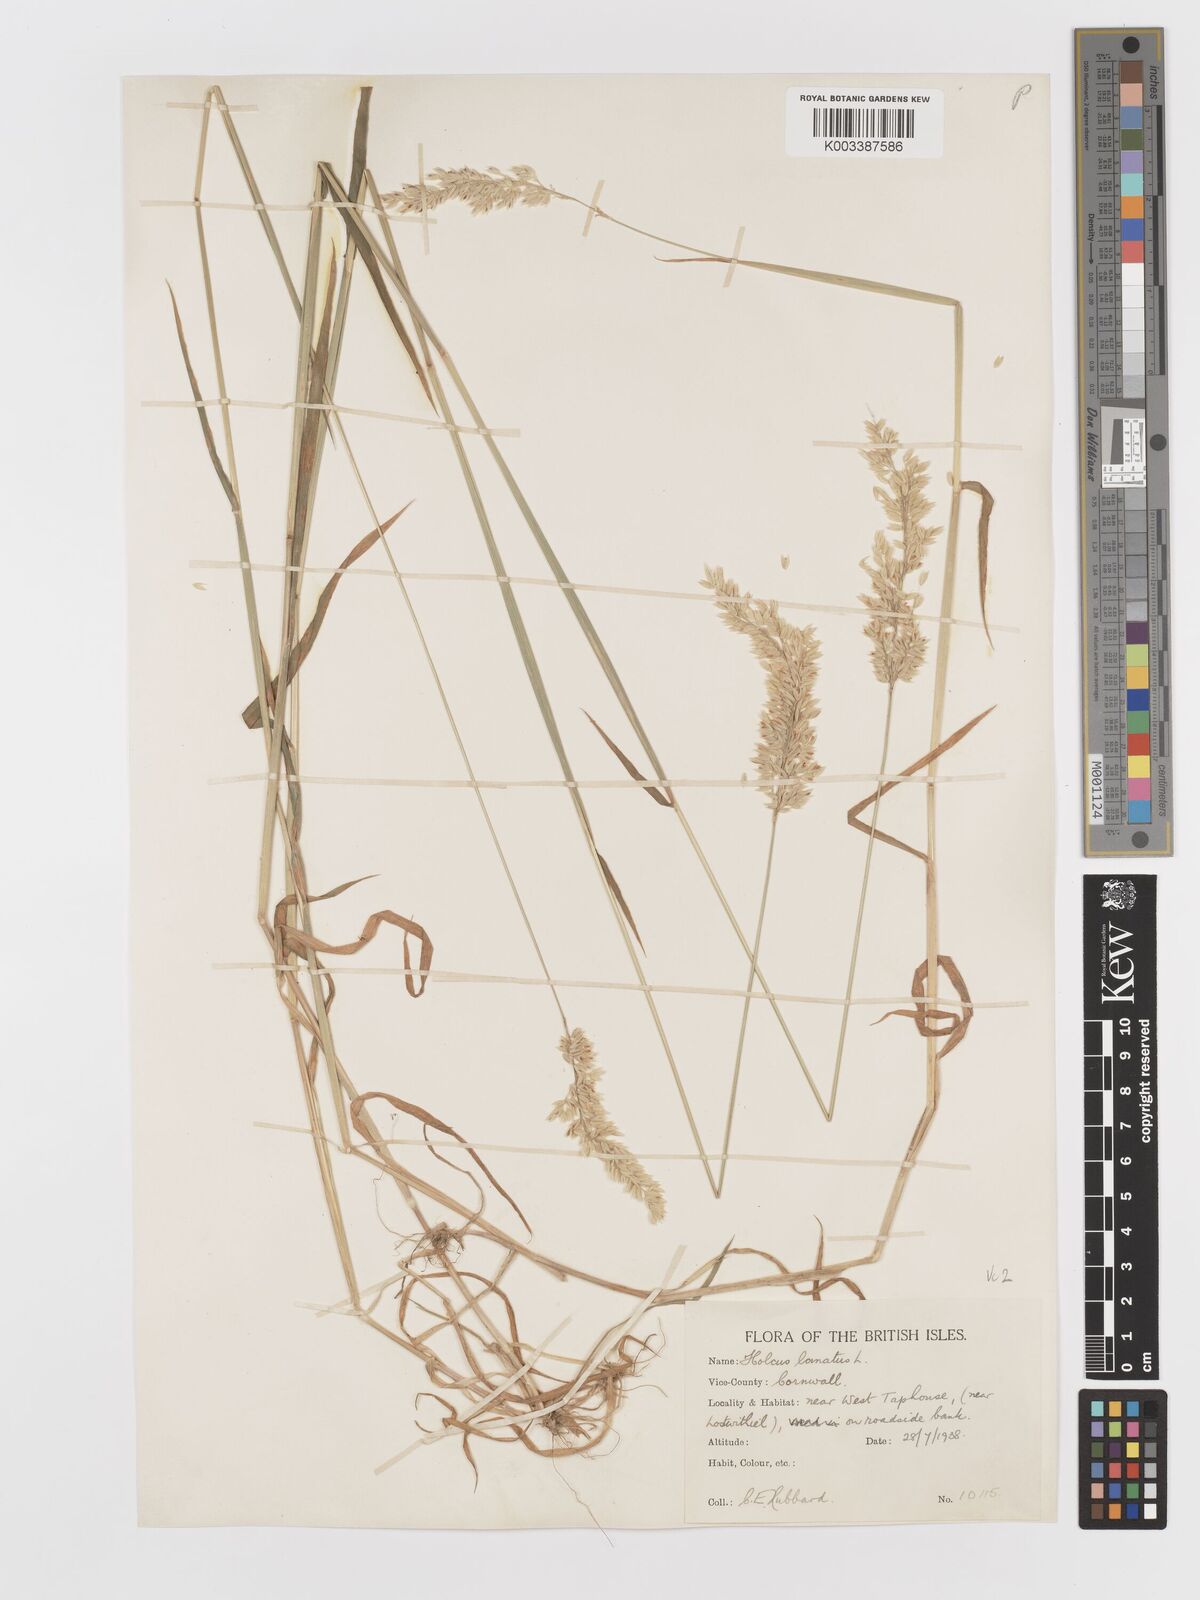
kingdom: Plantae
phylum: Tracheophyta
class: Liliopsida
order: Poales
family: Poaceae
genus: Holcus
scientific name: Holcus lanatus
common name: Yorkshire-fog
